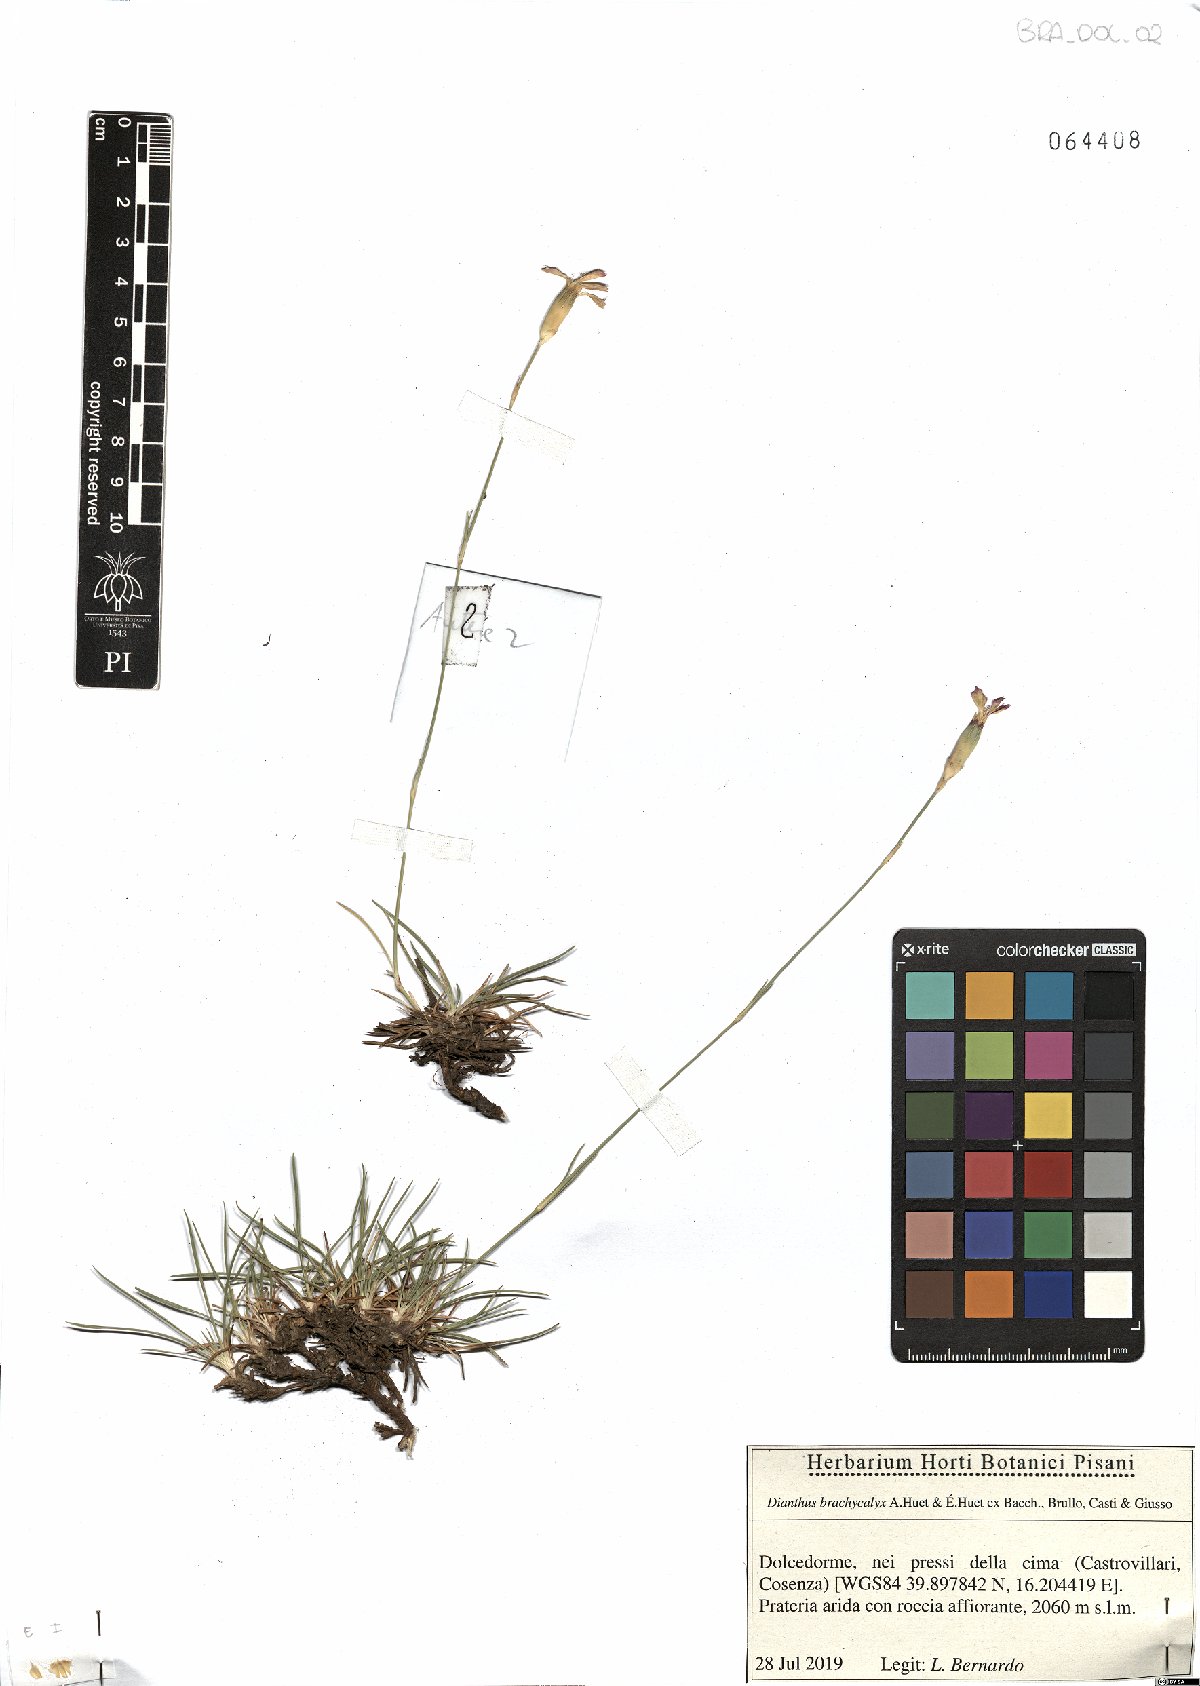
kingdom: Plantae
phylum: Tracheophyta
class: Magnoliopsida
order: Caryophyllales
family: Caryophyllaceae
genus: Dianthus
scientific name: Dianthus brachycalyx
